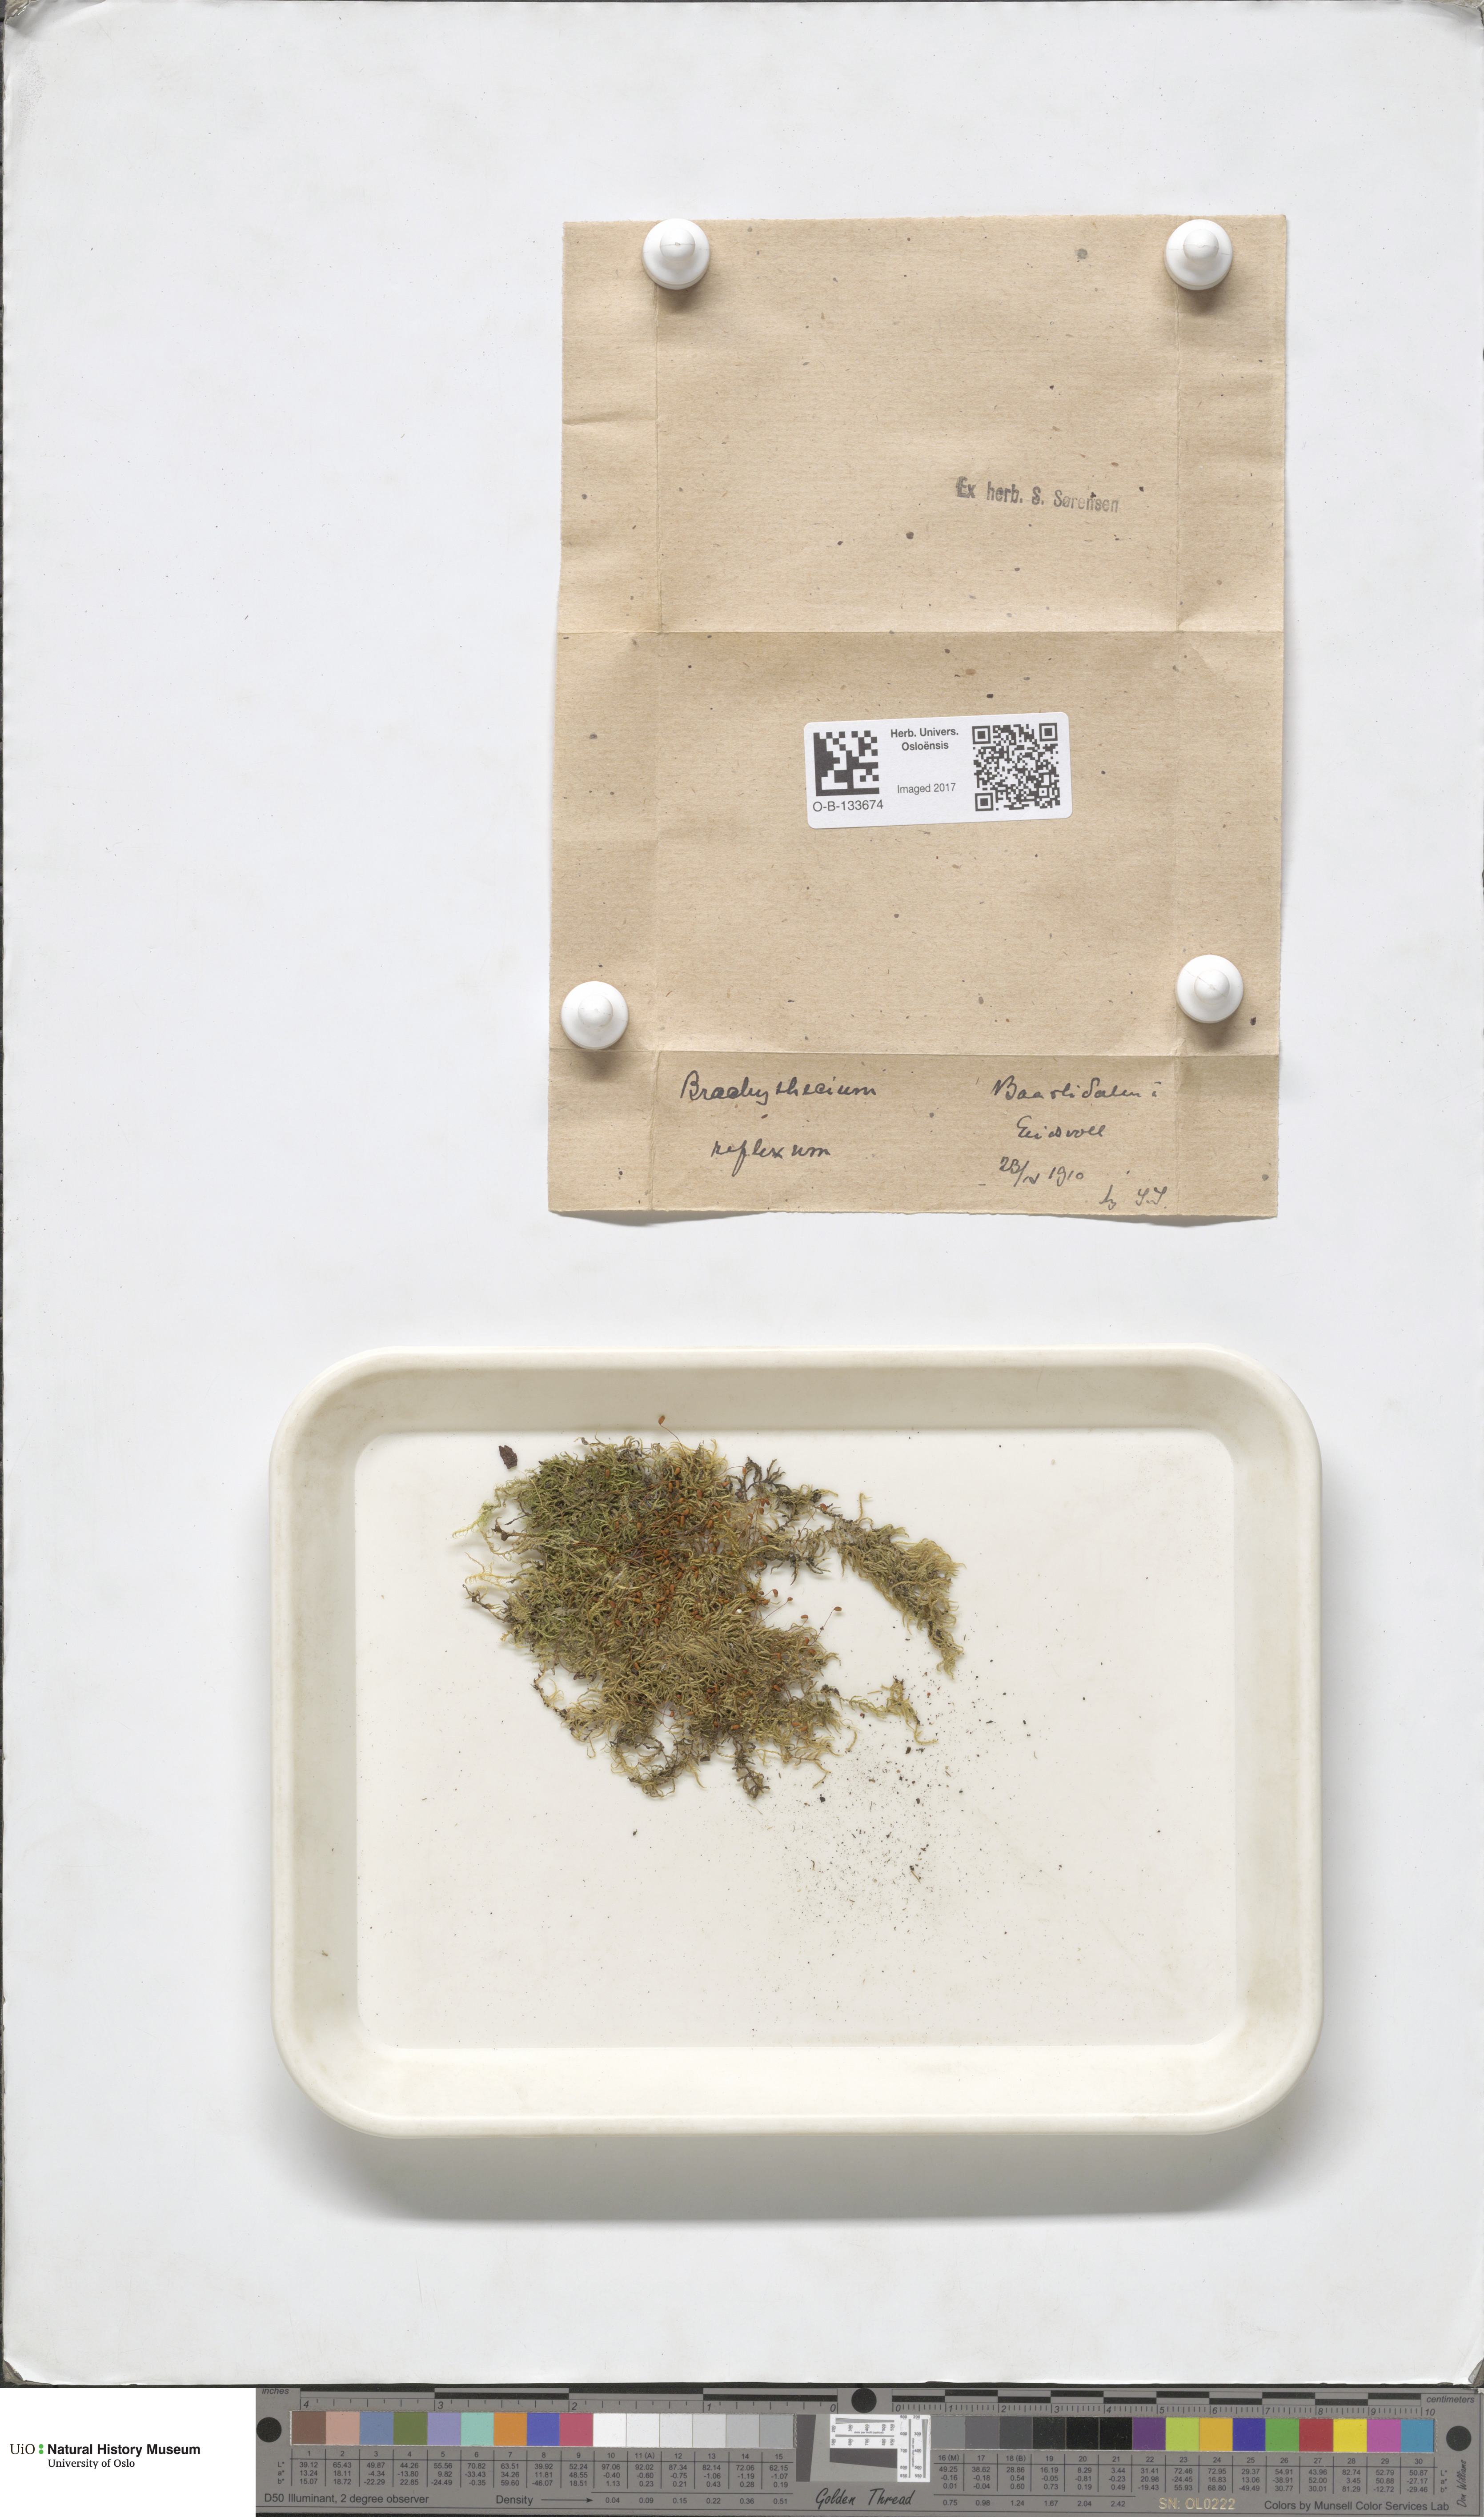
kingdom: Plantae
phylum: Bryophyta
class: Bryopsida
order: Hypnales
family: Brachytheciaceae
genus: Sciuro-hypnum
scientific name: Sciuro-hypnum reflexum
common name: Reflexed feather-moss
